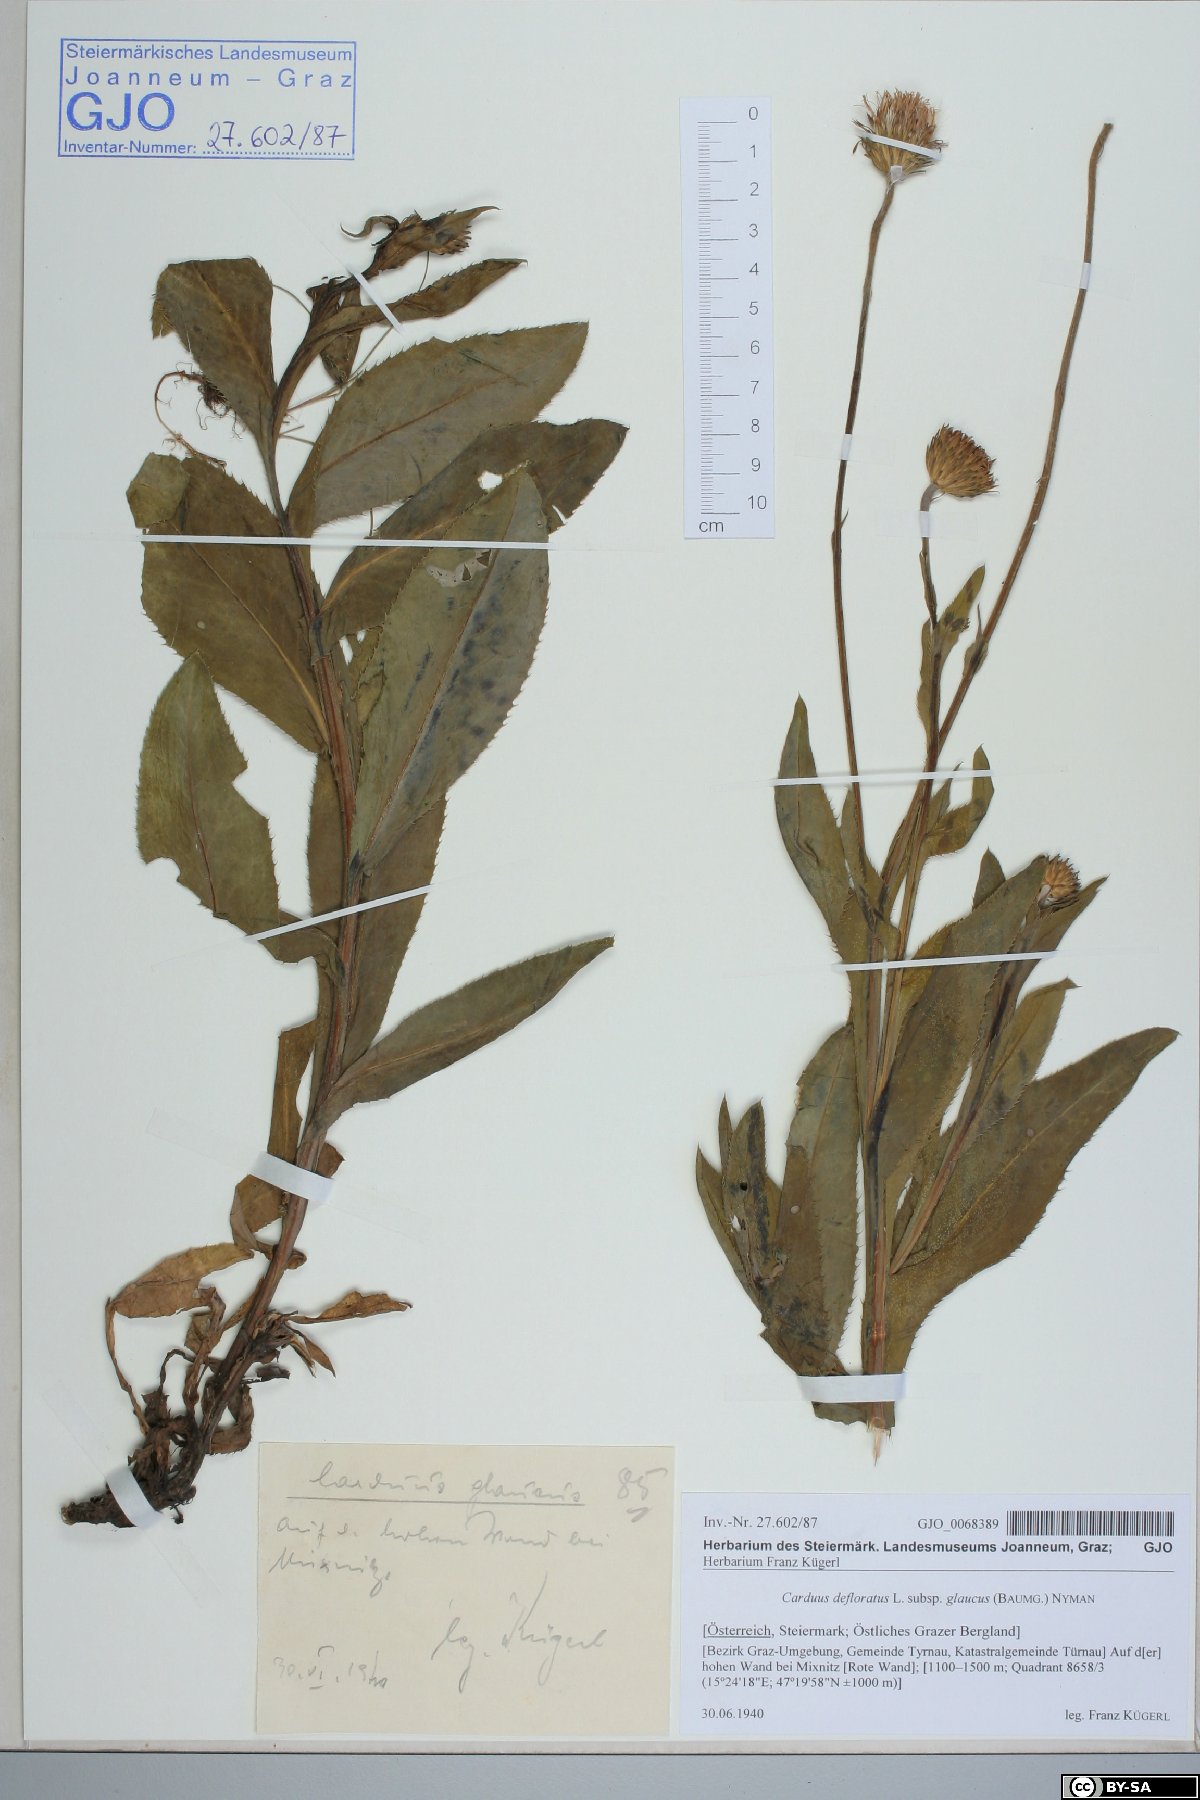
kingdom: Plantae
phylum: Tracheophyta
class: Magnoliopsida
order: Asterales
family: Asteraceae
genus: Carduus
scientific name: Carduus defloratus
